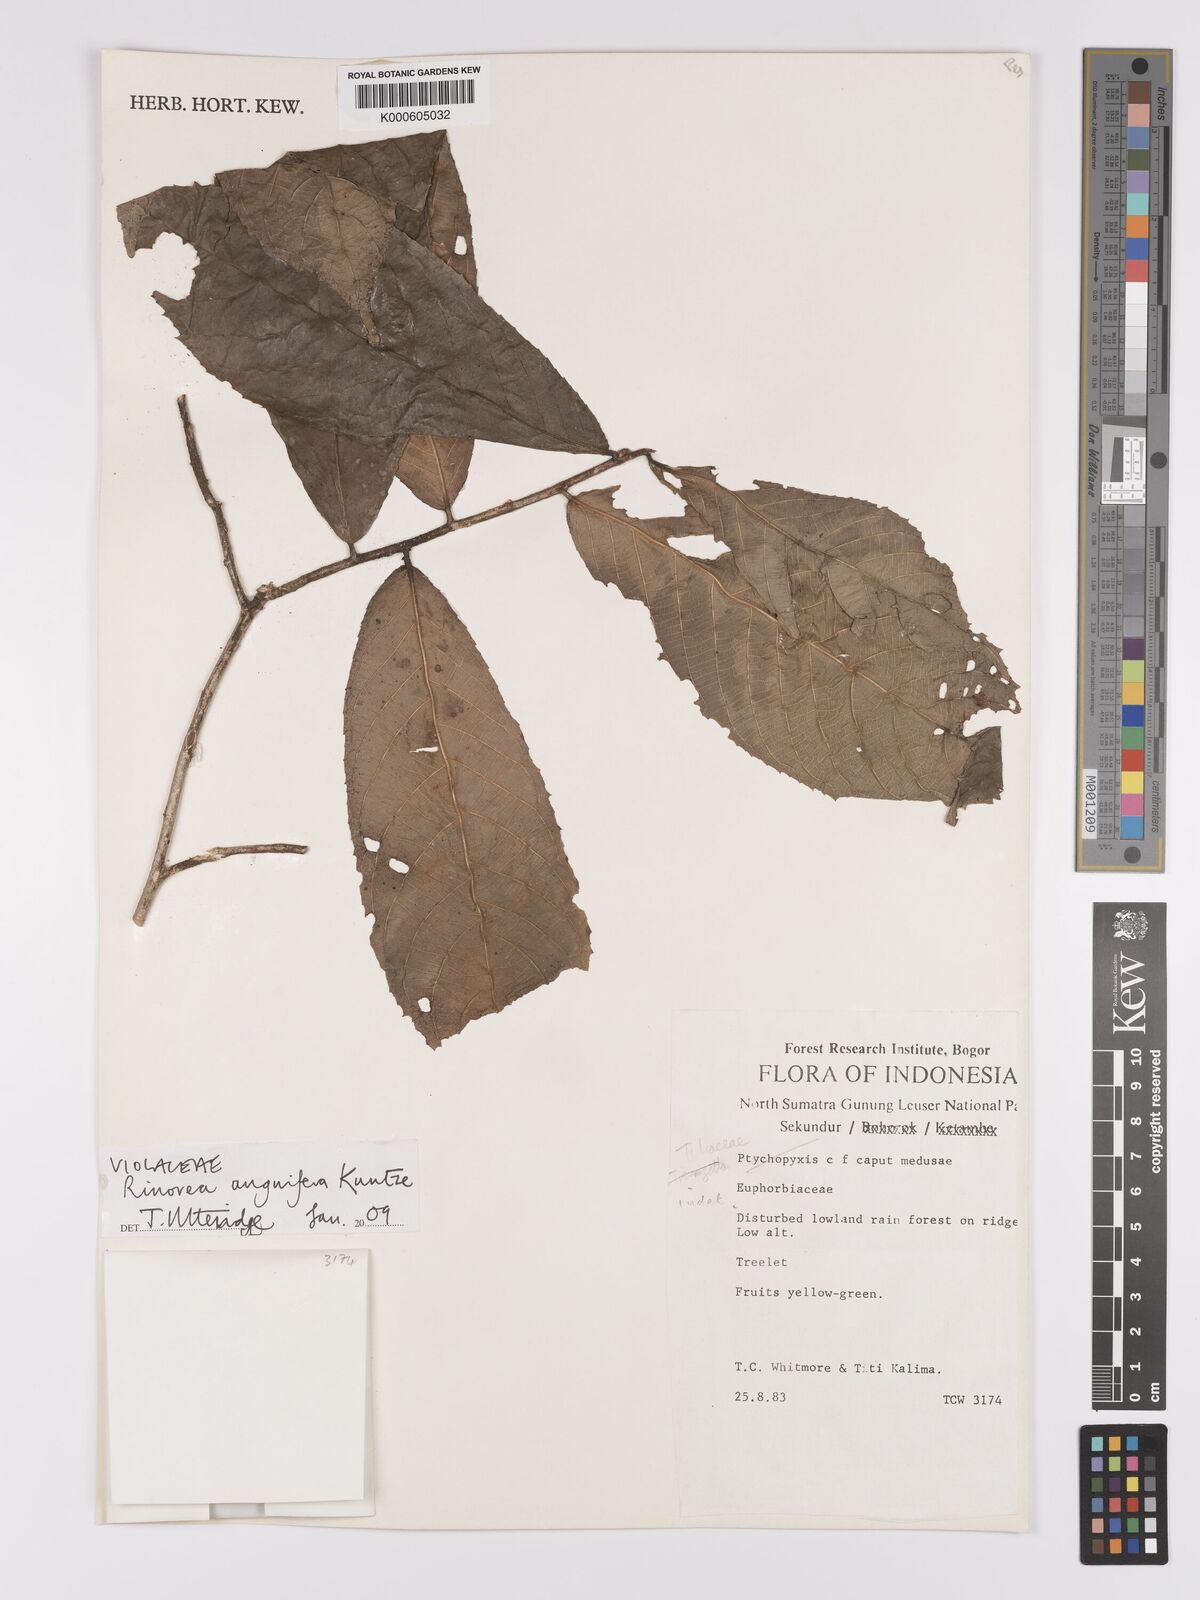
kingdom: Plantae
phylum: Tracheophyta
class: Magnoliopsida
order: Malpighiales
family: Violaceae
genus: Rinorea
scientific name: Rinorea anguifera
